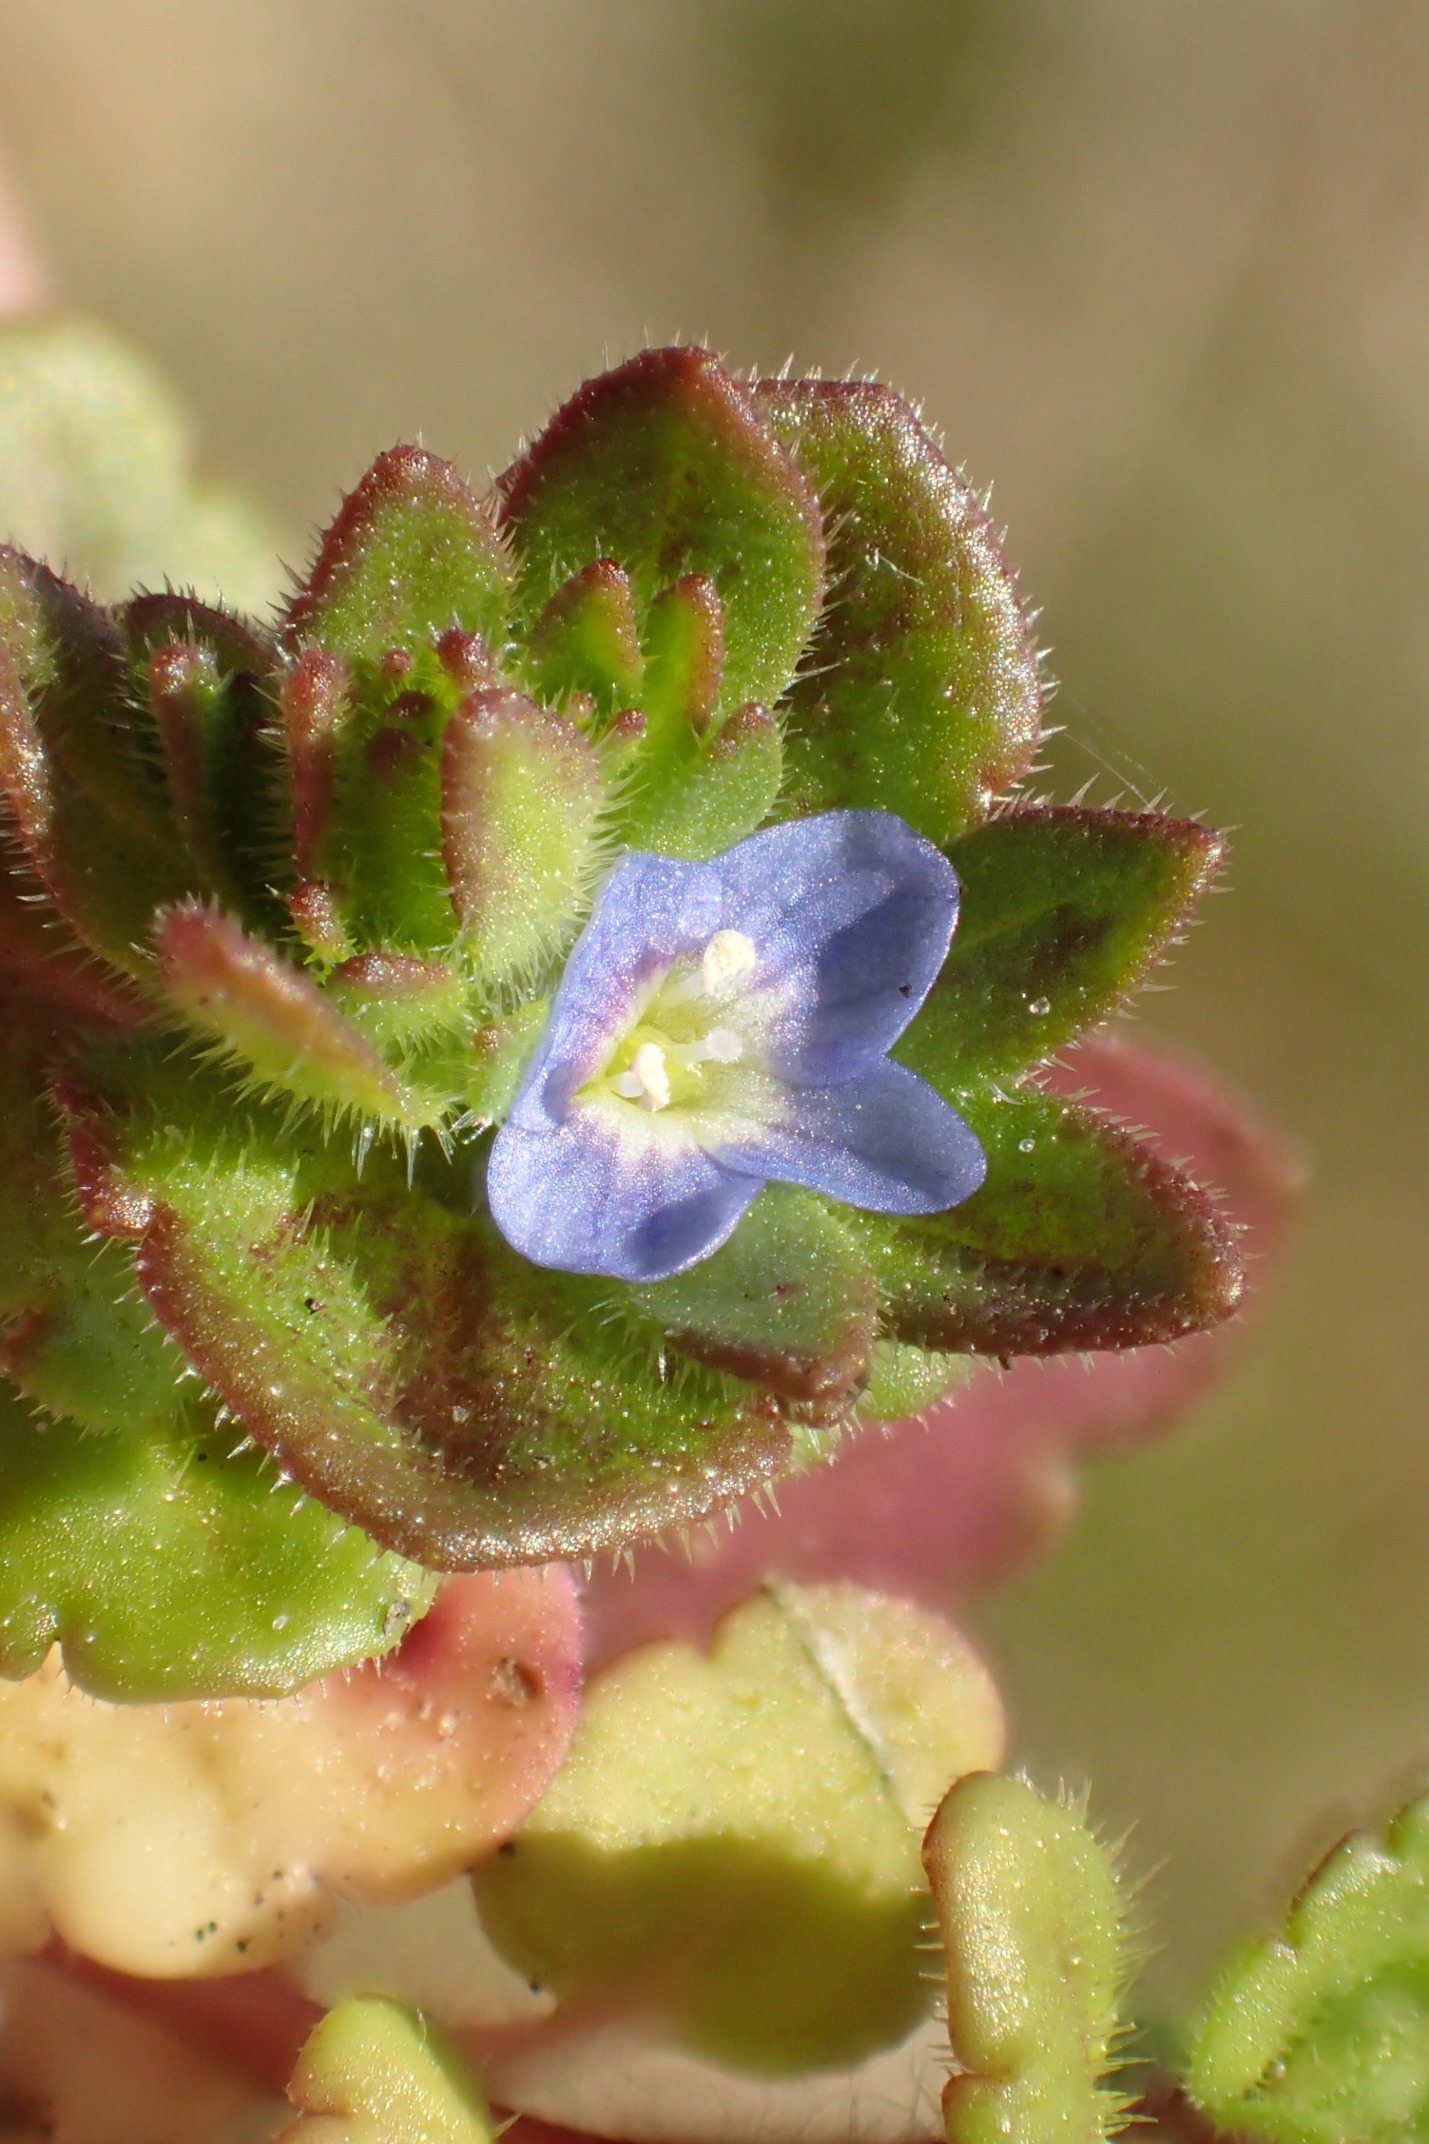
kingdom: Plantae
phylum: Tracheophyta
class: Magnoliopsida
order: Lamiales
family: Plantaginaceae
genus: Veronica
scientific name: Veronica arvensis
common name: Mark-ærenpris
